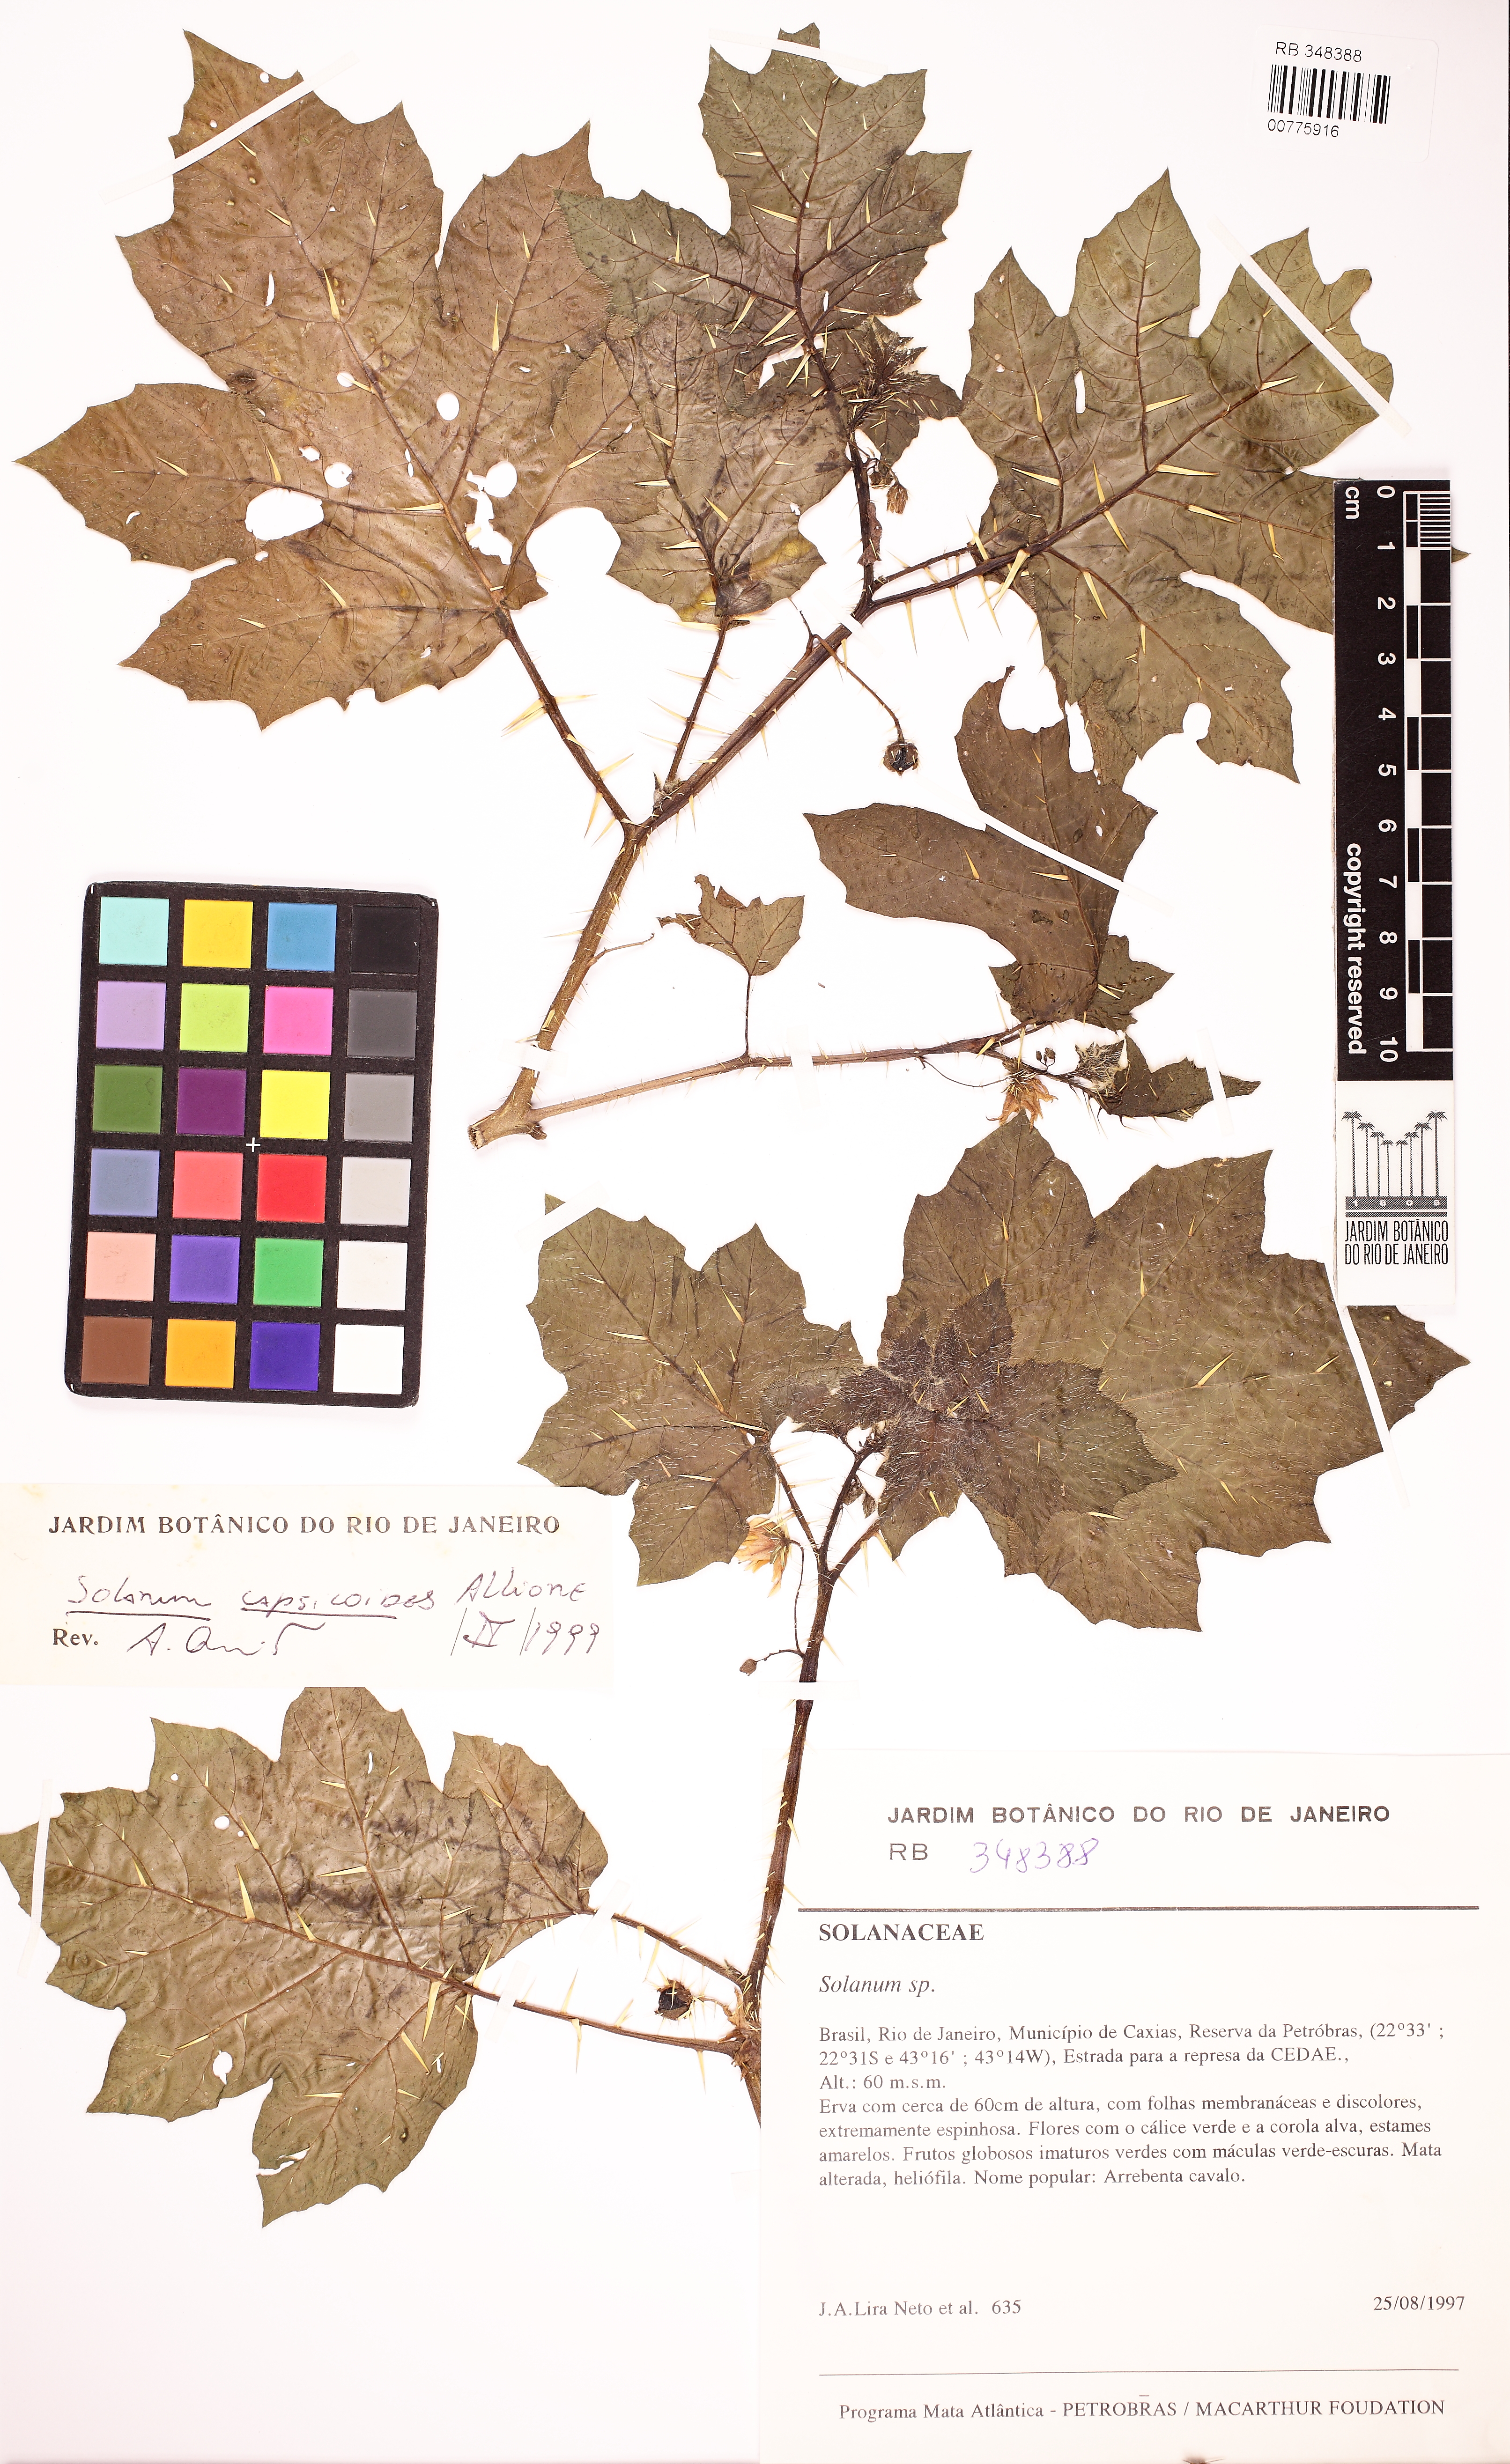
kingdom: Plantae
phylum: Tracheophyta
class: Magnoliopsida
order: Solanales
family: Solanaceae
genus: Solanum
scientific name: Solanum capsicoides
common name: Cockroach berry
